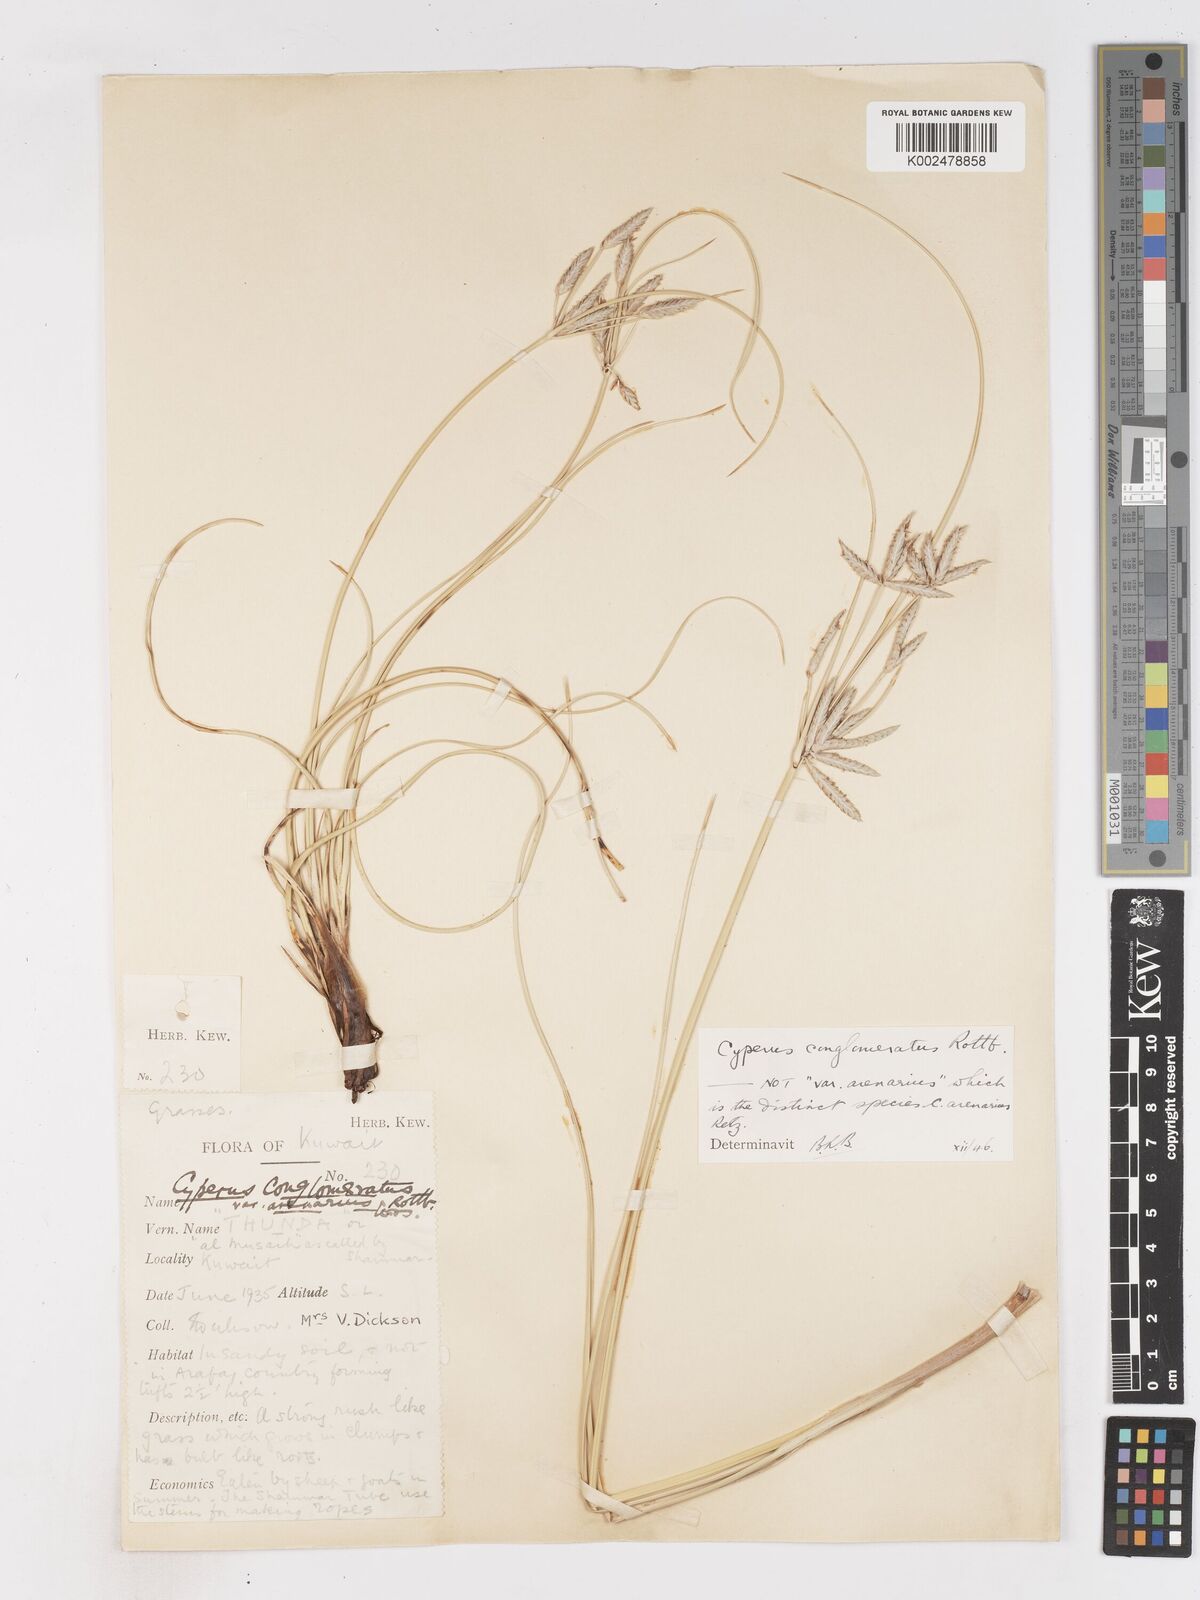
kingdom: Plantae
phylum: Tracheophyta
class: Liliopsida
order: Poales
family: Cyperaceae
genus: Cyperus
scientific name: Cyperus aucheri
